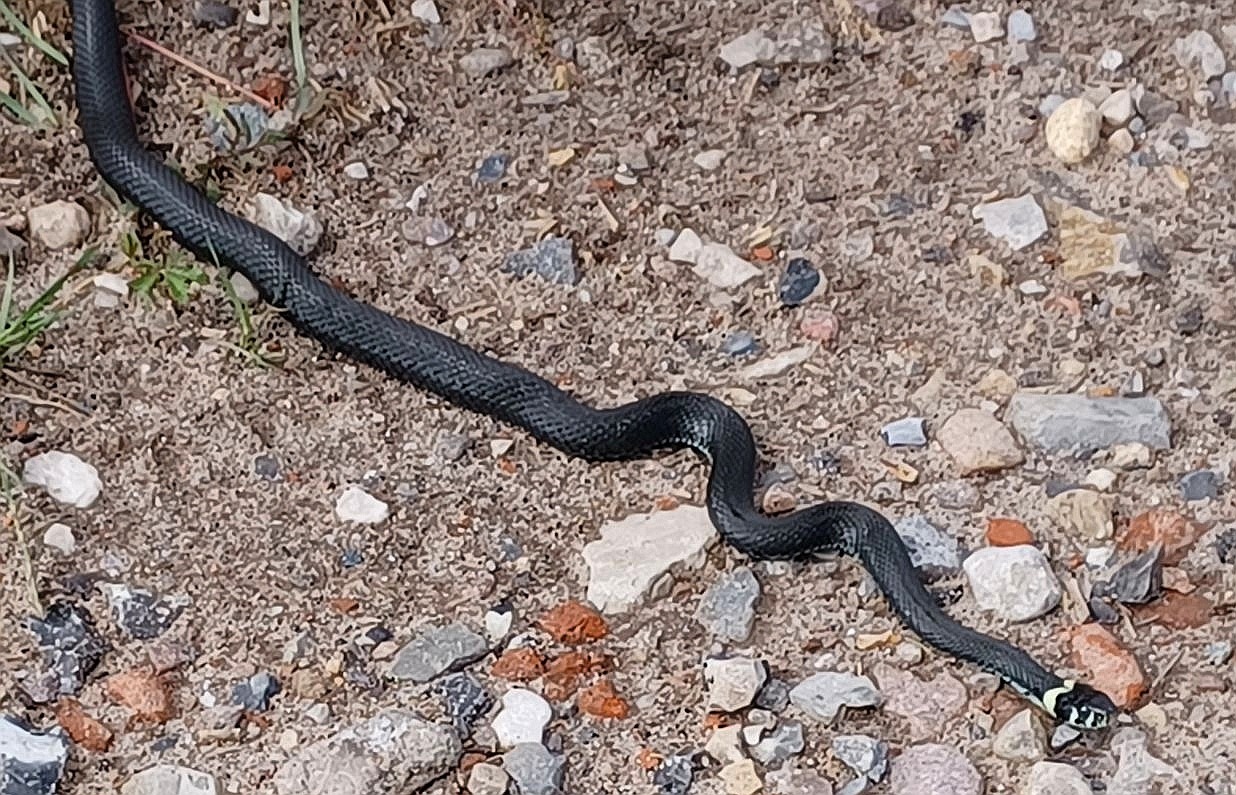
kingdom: Animalia
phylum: Chordata
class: Squamata
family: Colubridae
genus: Natrix
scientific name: Natrix natrix
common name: Snog
